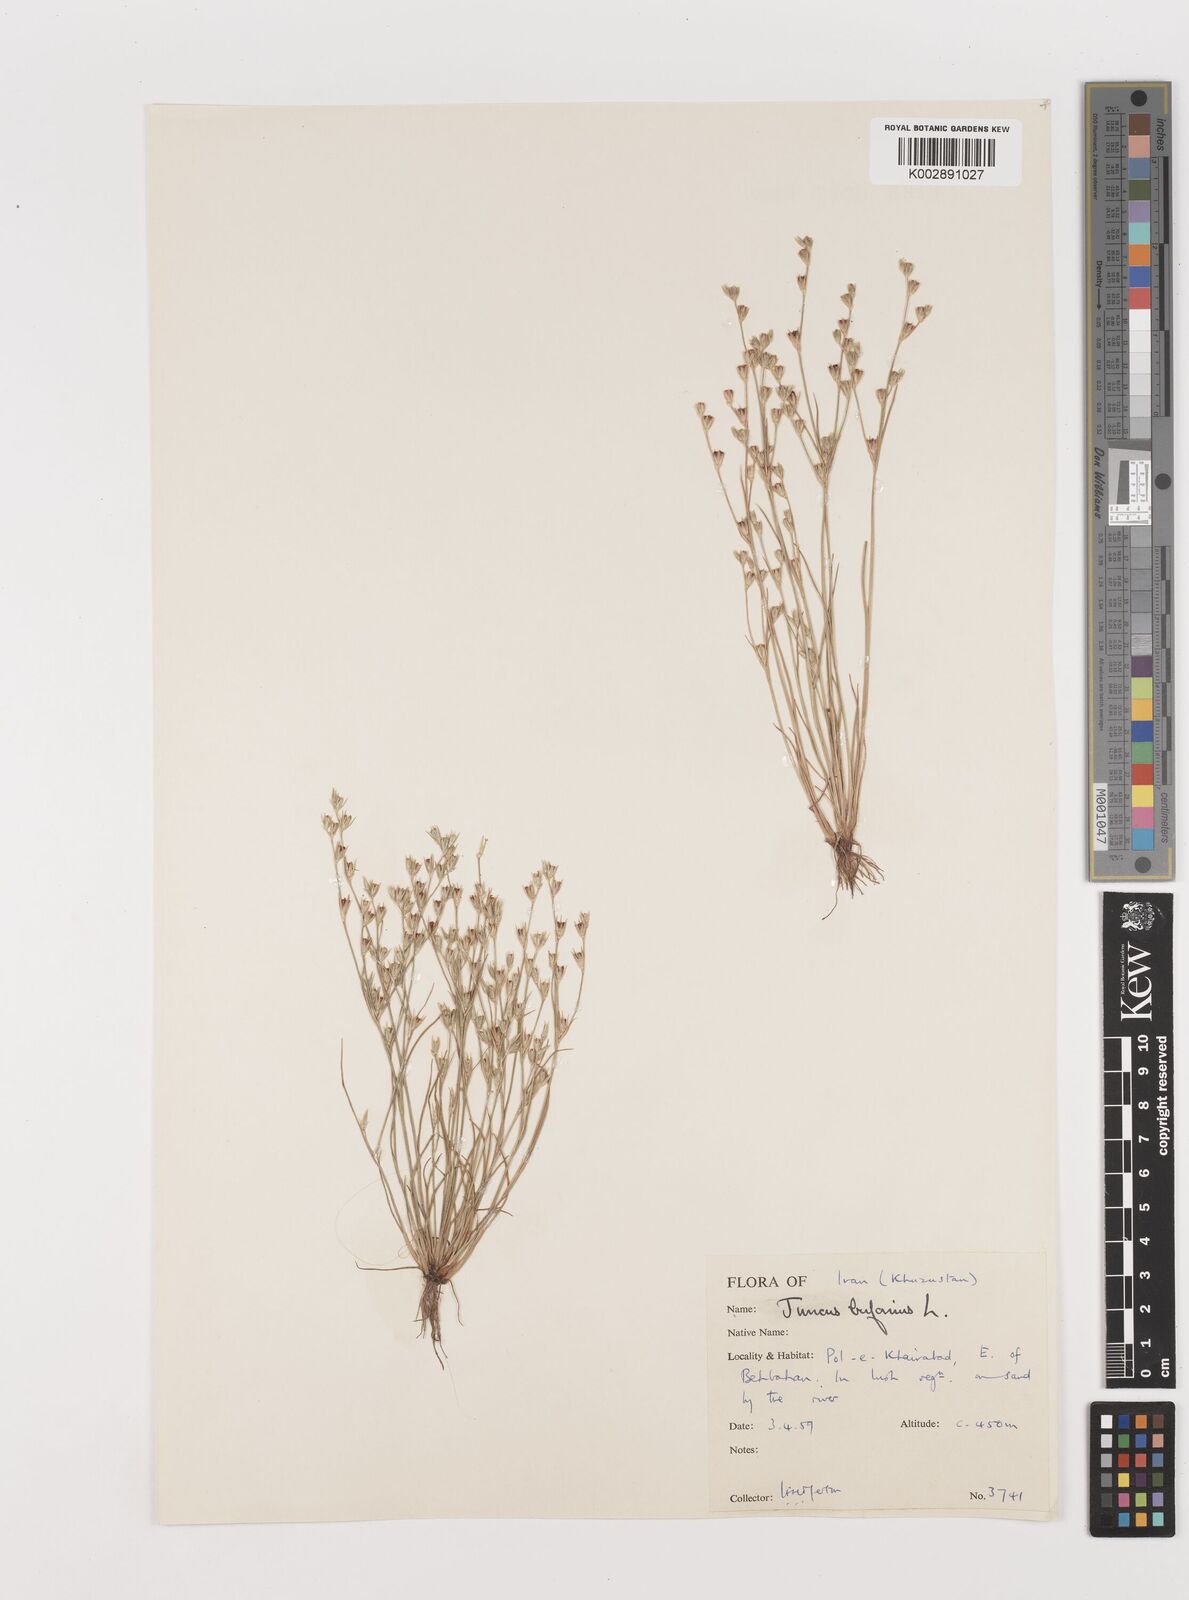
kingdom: Plantae
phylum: Tracheophyta
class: Liliopsida
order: Poales
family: Juncaceae
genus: Juncus
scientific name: Juncus bufonius
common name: Toad rush
